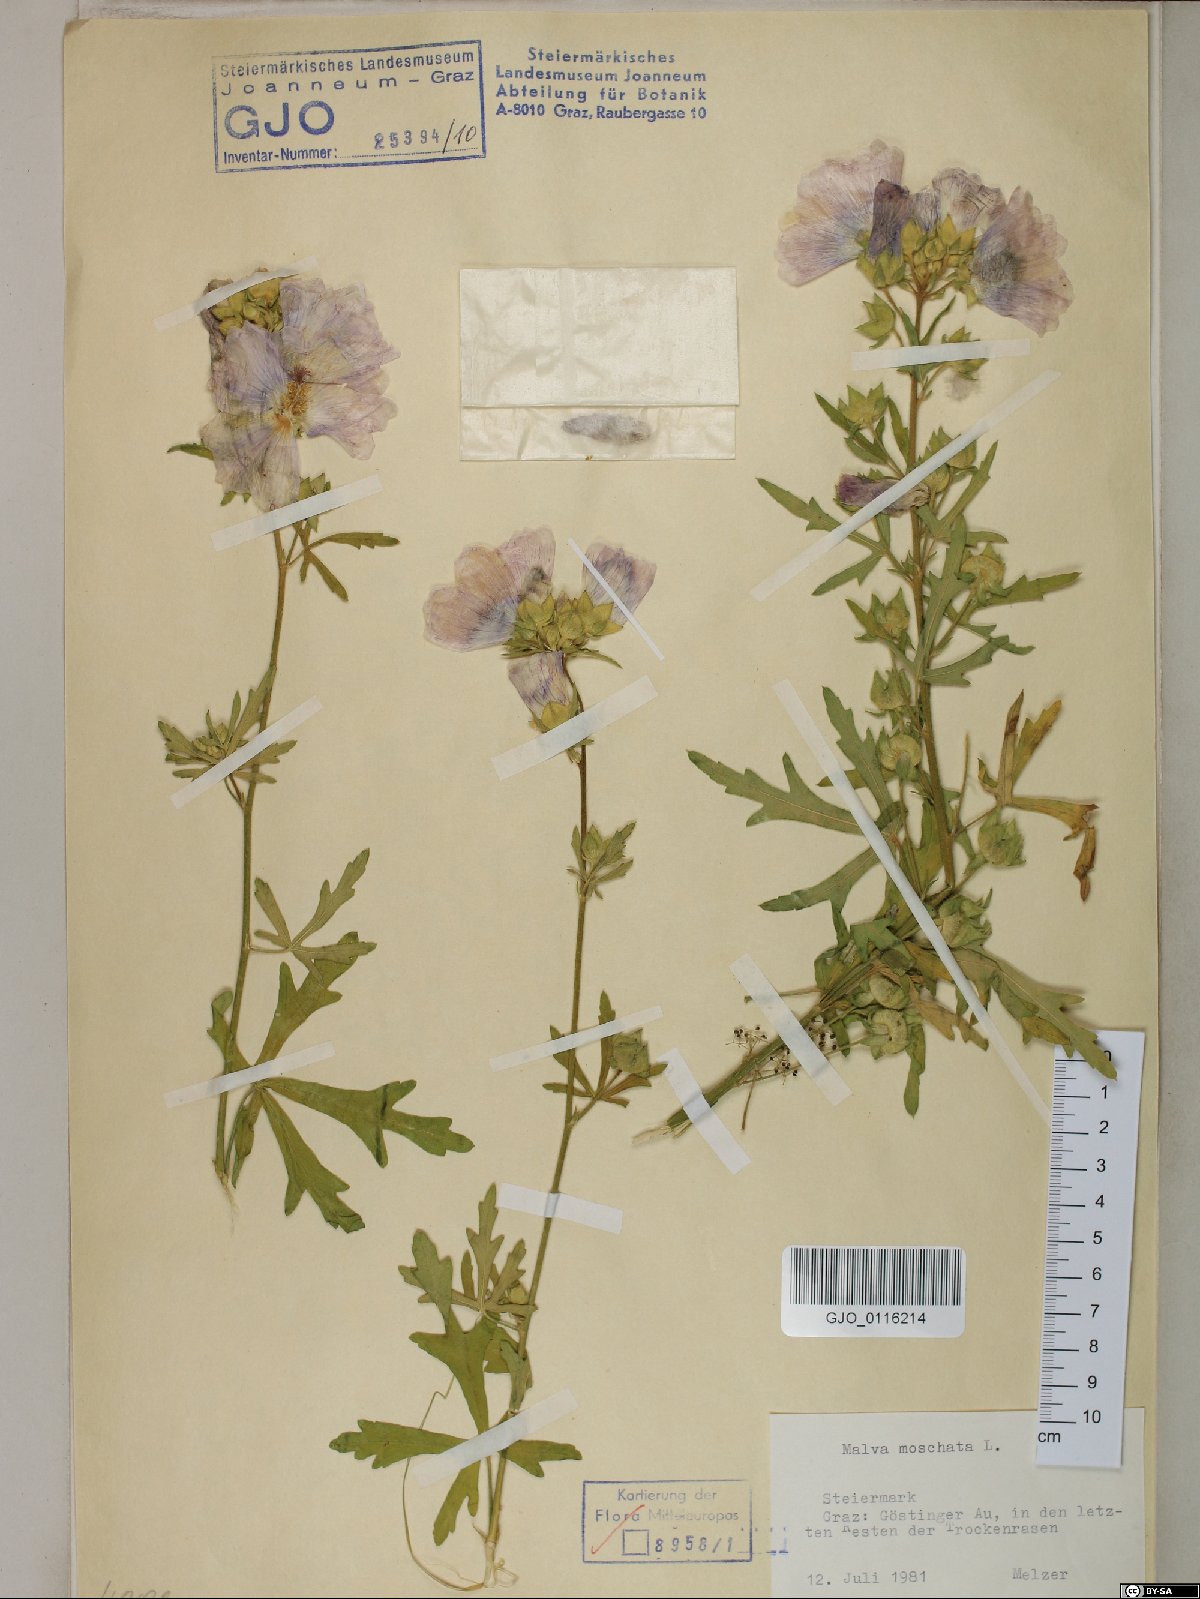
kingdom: Plantae
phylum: Tracheophyta
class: Magnoliopsida
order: Malvales
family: Malvaceae
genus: Malva
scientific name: Malva moschata
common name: Musk mallow
